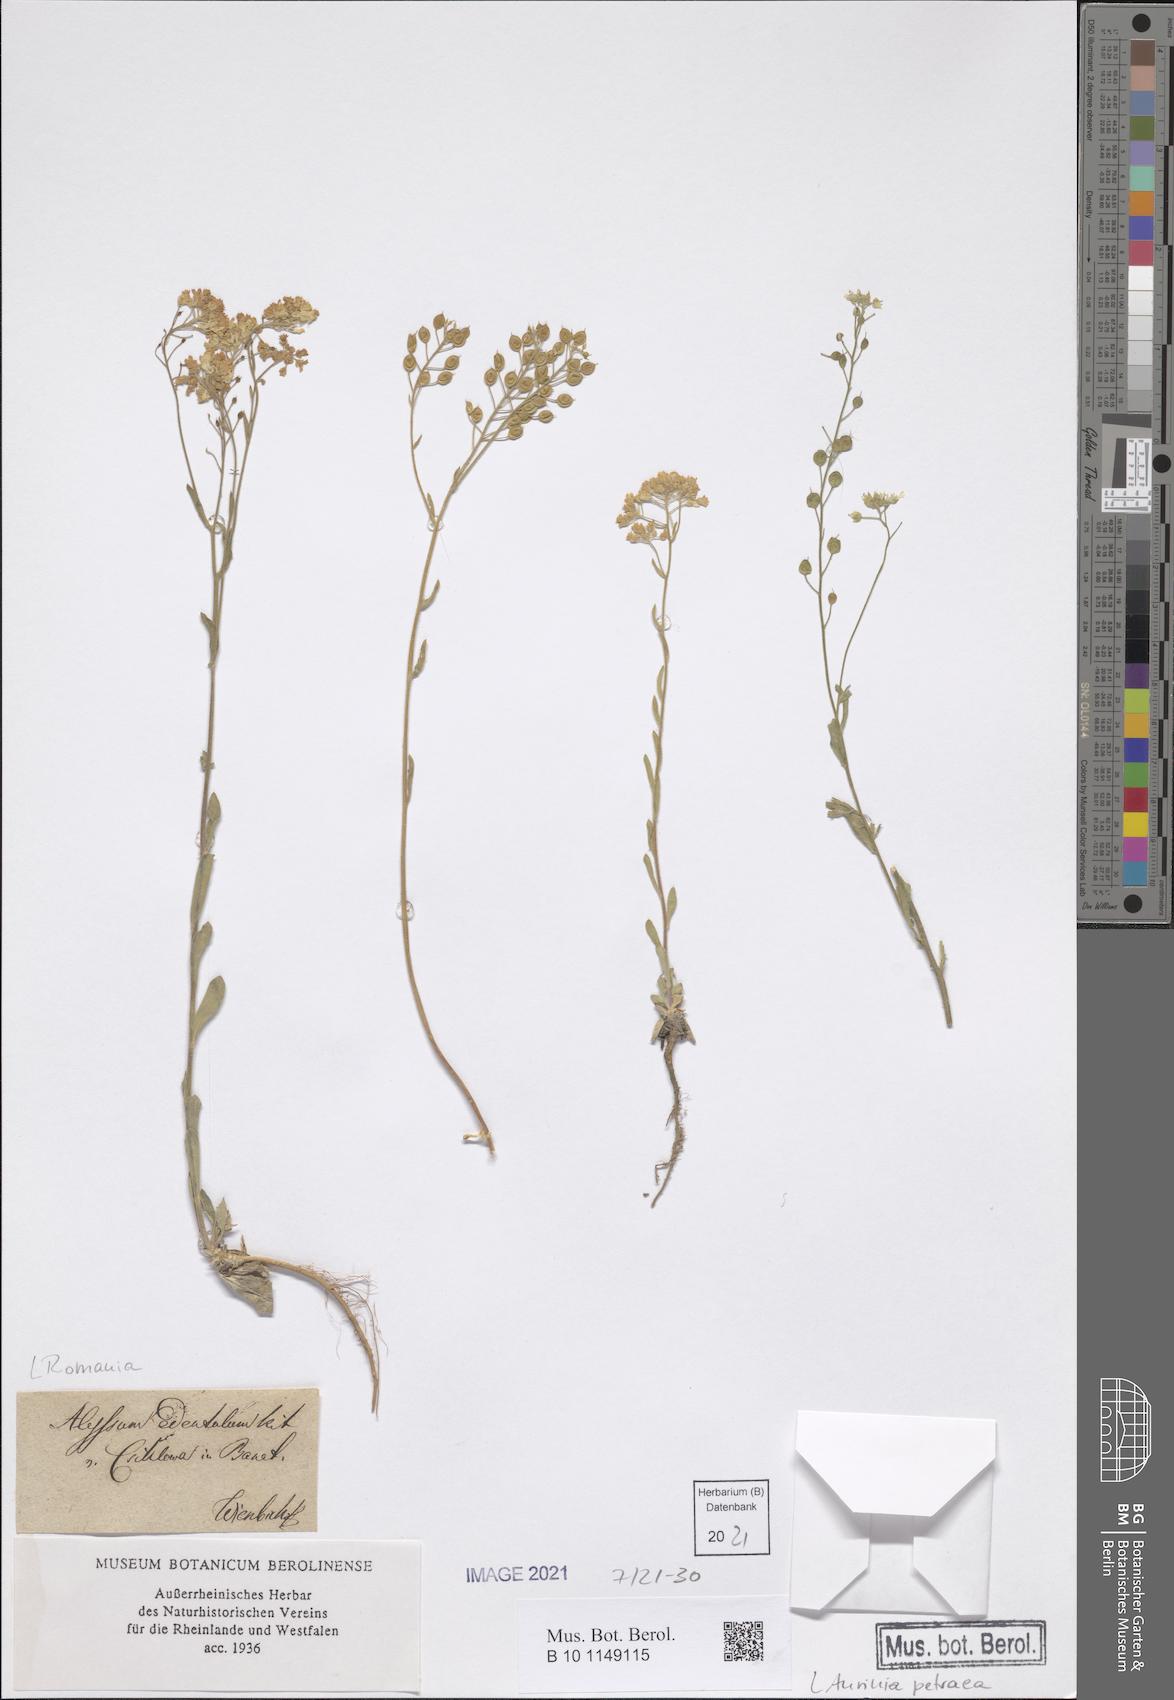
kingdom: Plantae
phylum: Tracheophyta
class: Magnoliopsida
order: Brassicales
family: Brassicaceae
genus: Aurinia
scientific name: Aurinia petraea
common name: Goldentuft
